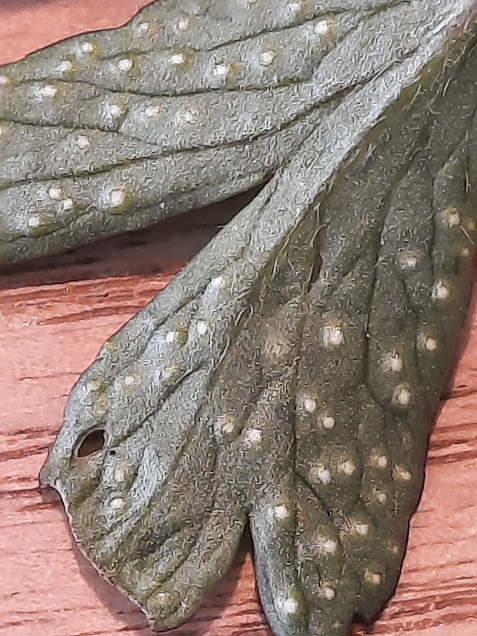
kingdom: Fungi
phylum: Basidiomycota
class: Pucciniomycetes
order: Pucciniales
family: Ochropsoraceae
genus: Ochropsora
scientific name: Ochropsora ariae
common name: anemone-okkerpletrust
